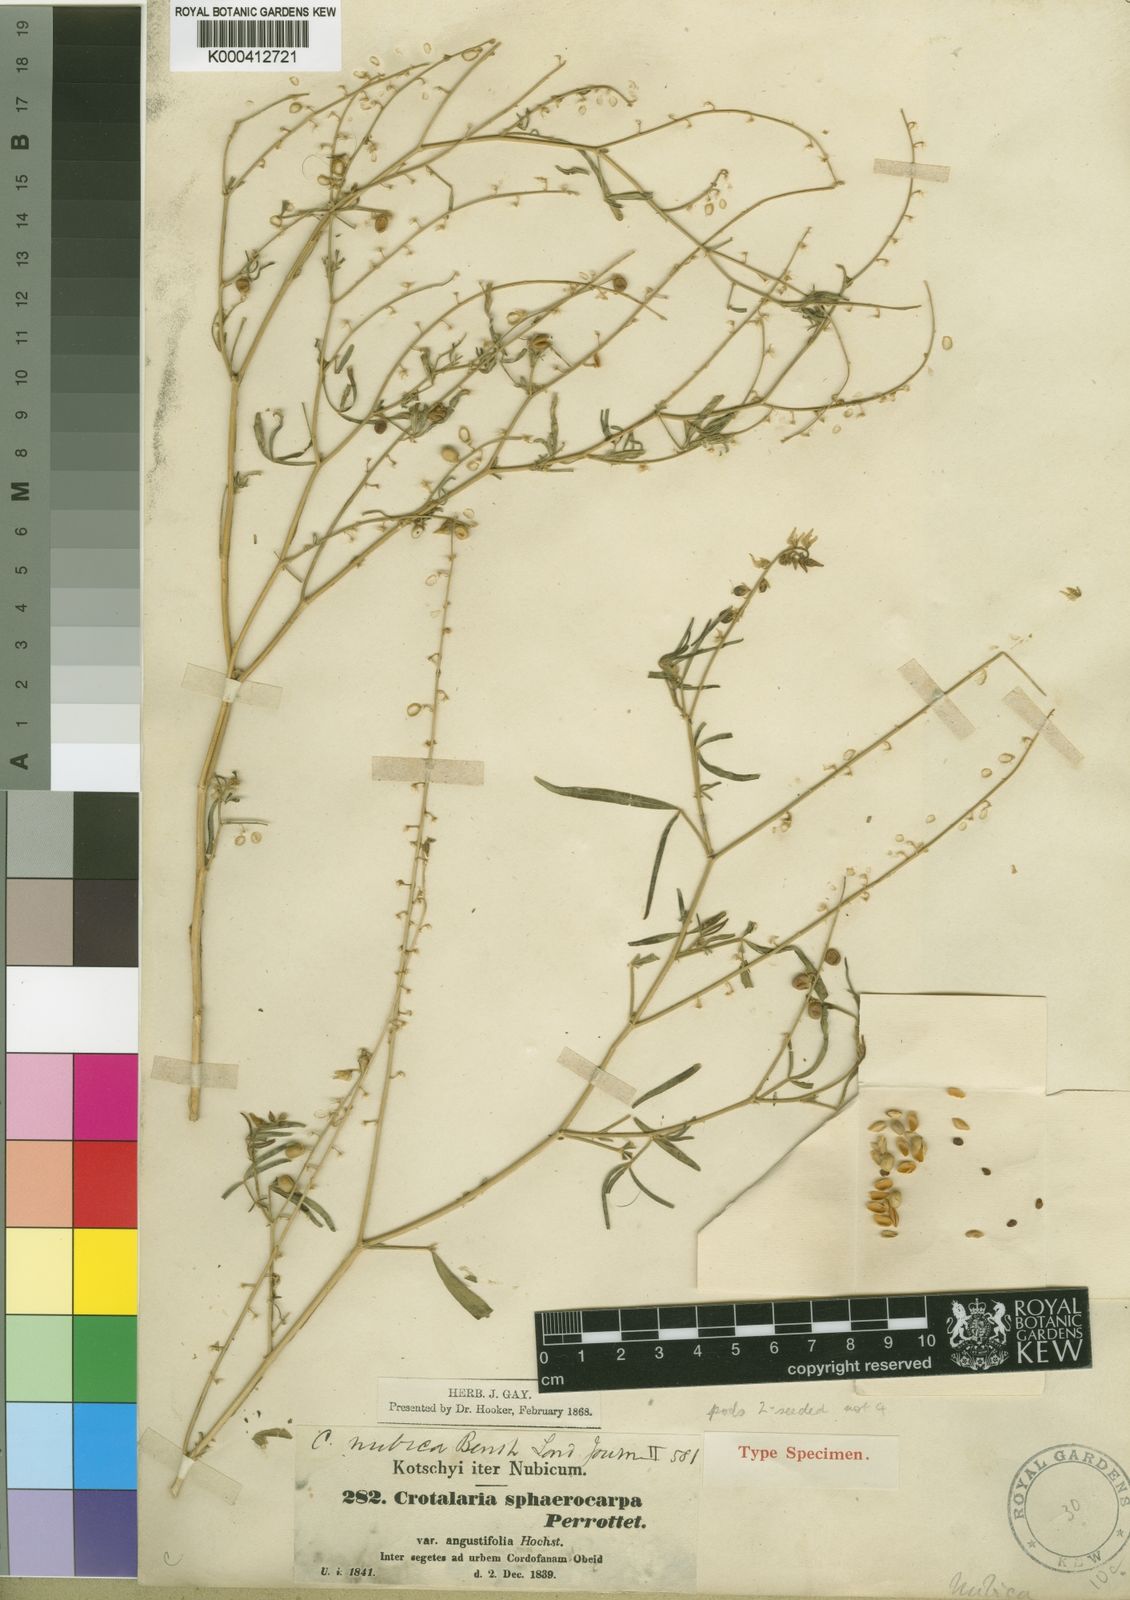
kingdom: Plantae
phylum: Tracheophyta
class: Magnoliopsida
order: Fabales
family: Fabaceae
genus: Crotalaria
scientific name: Crotalaria sphaerocarpa
